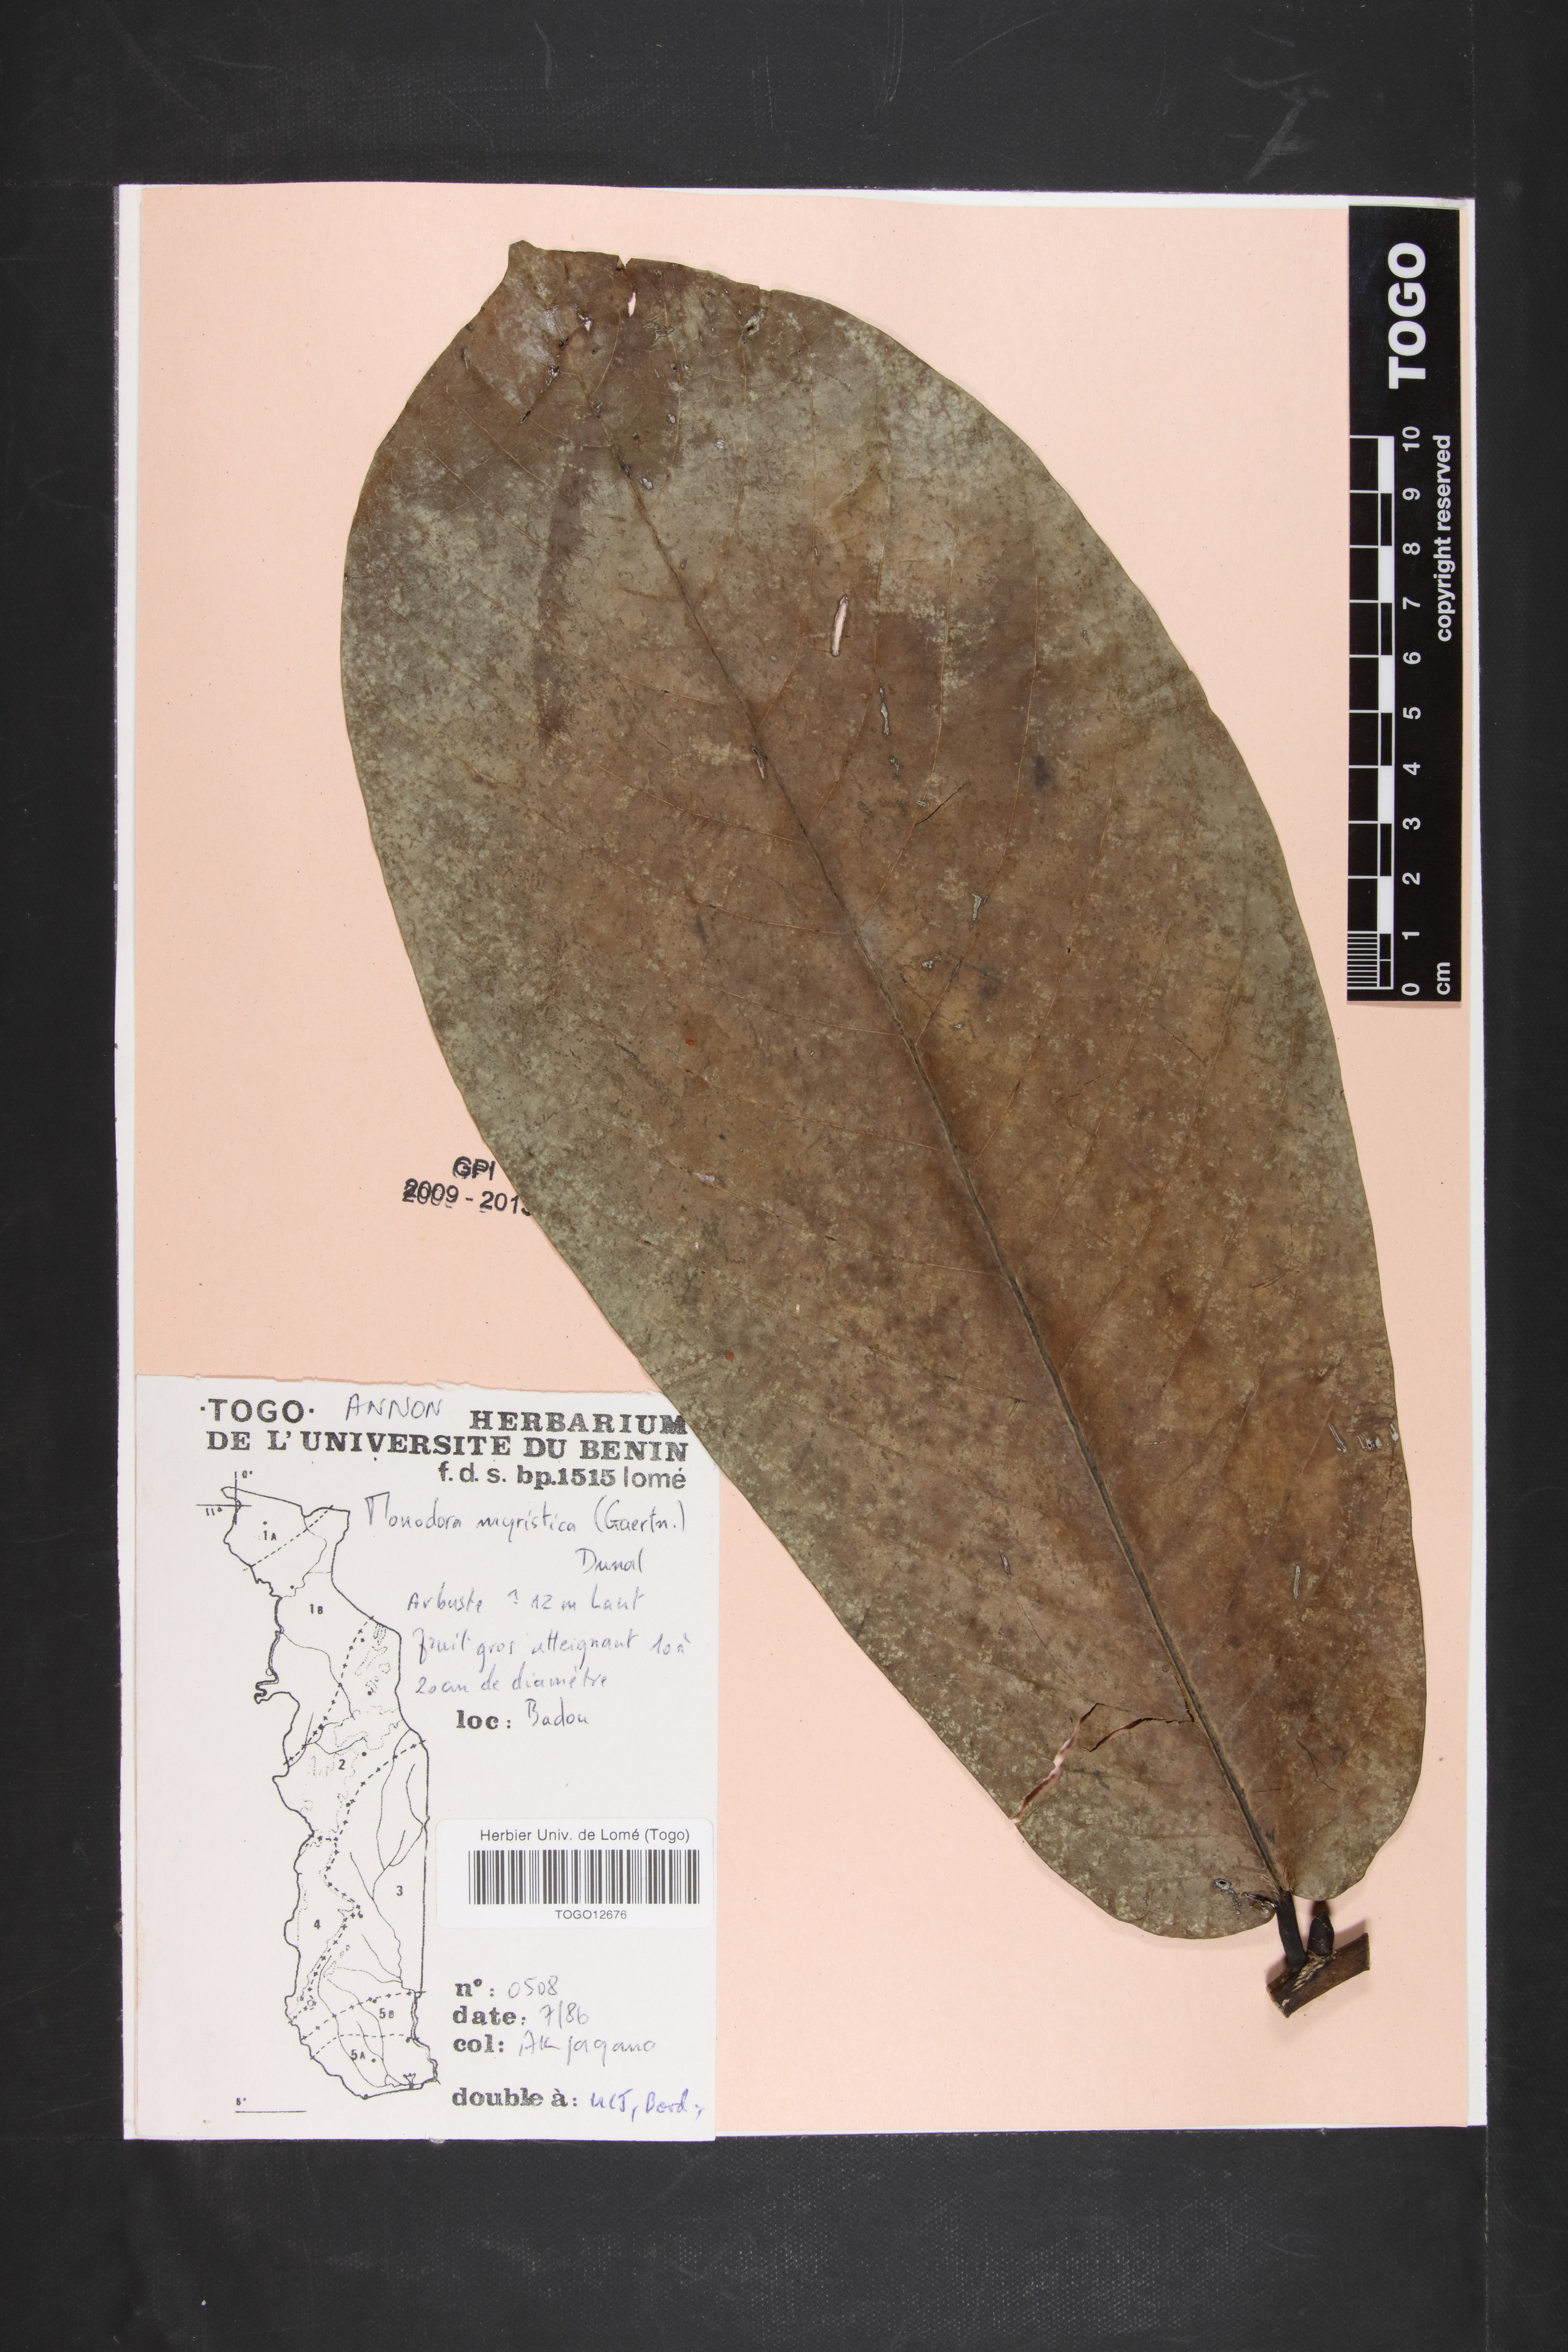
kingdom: Plantae
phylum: Tracheophyta
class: Magnoliopsida
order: Magnoliales
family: Annonaceae
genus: Monodora
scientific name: Monodora myristica
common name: African nutmeg
